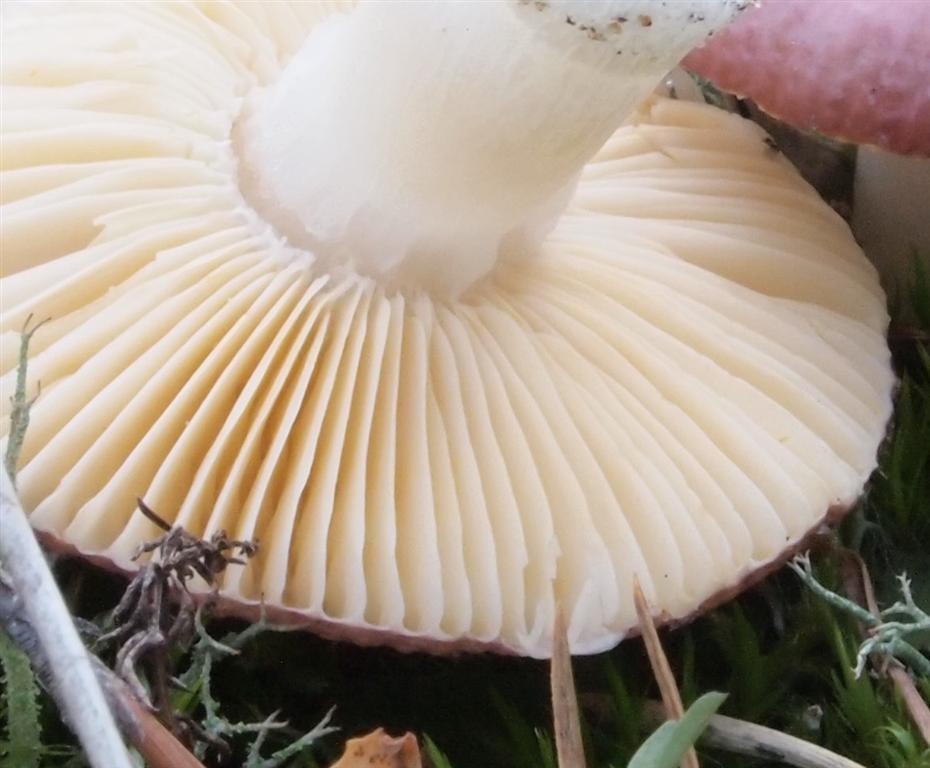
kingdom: Fungi
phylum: Basidiomycota
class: Agaricomycetes
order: Russulales
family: Russulaceae
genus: Russula
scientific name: Russula cessans
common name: fyrre-skørhat
